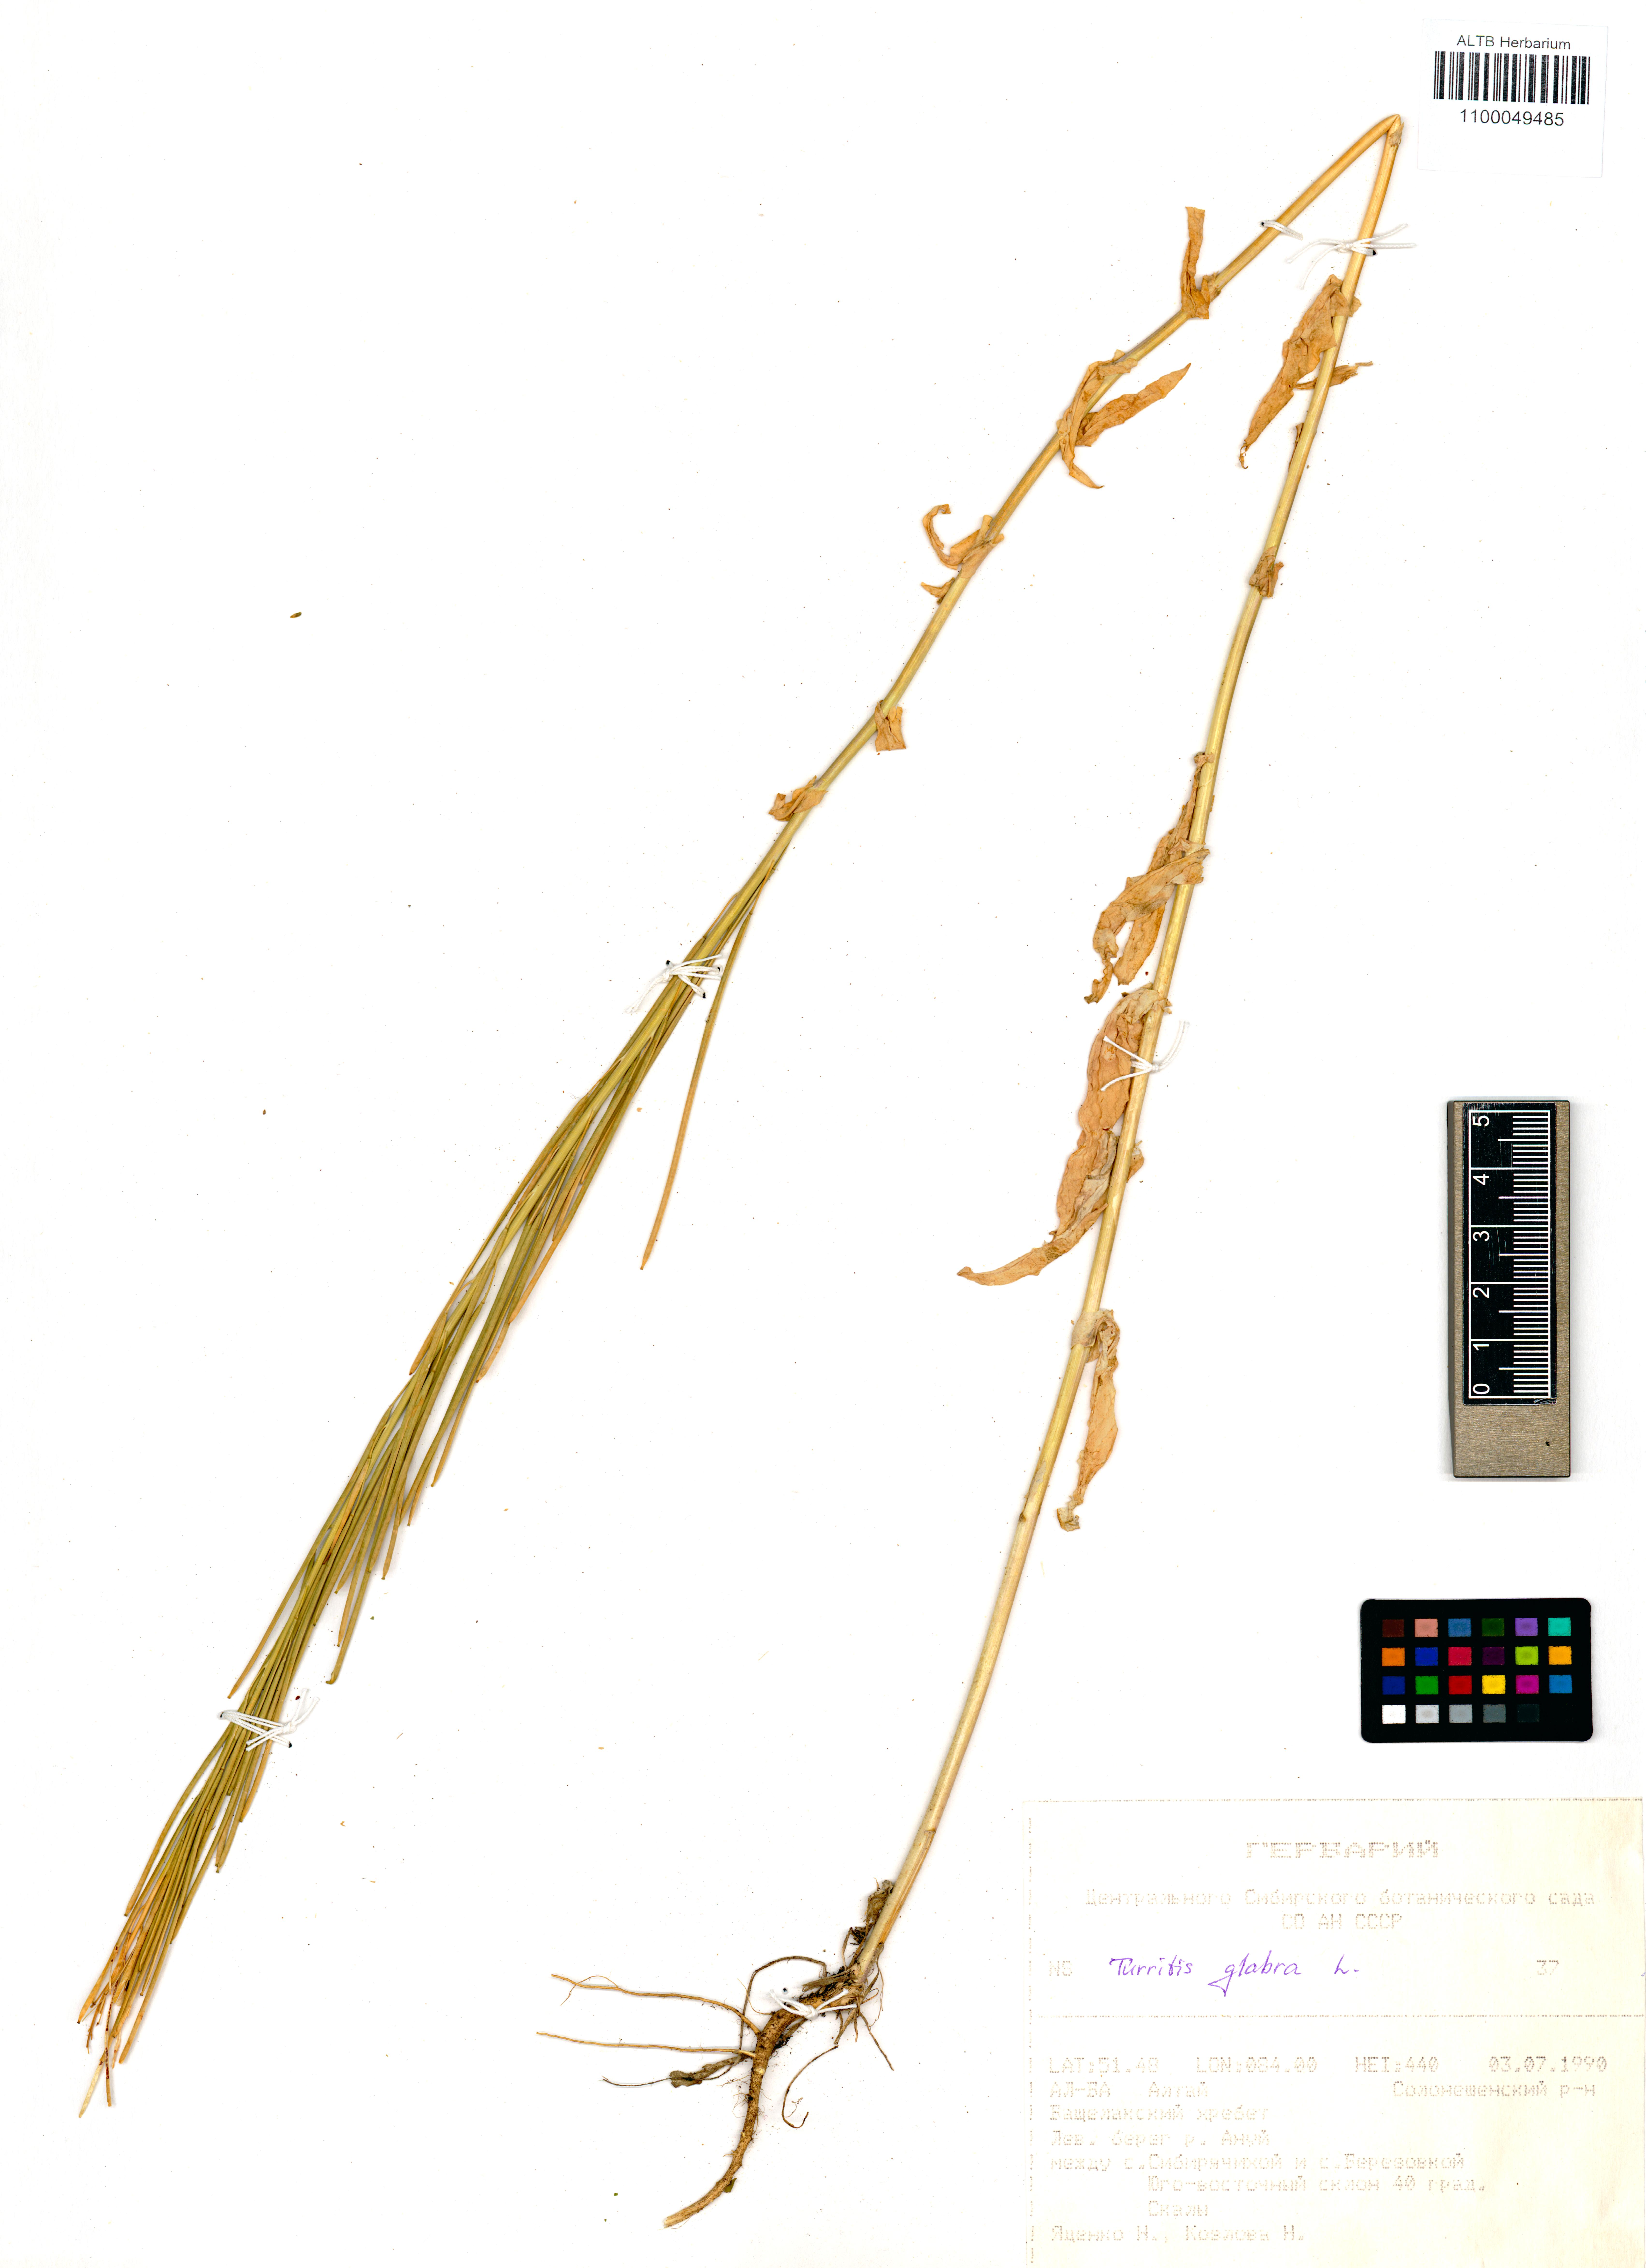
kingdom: Plantae
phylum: Tracheophyta
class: Magnoliopsida
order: Brassicales
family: Brassicaceae
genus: Turritis
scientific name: Turritis glabra
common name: Tower rockcress
